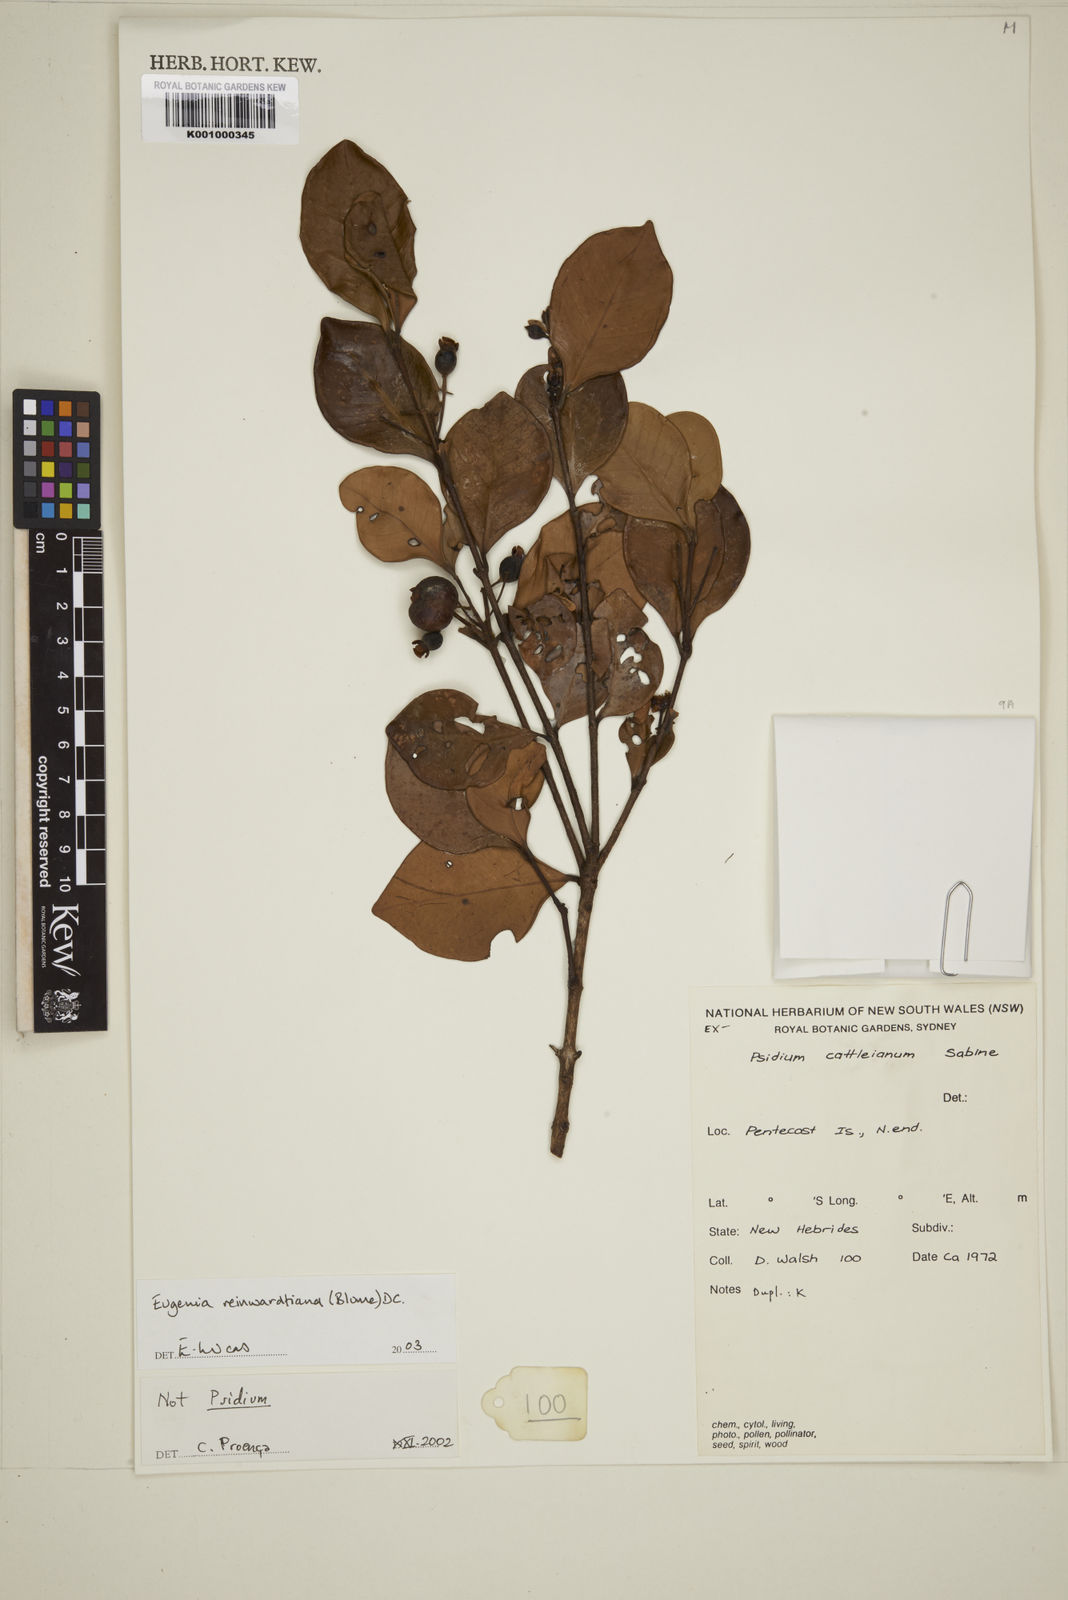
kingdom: Plantae
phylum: Tracheophyta
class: Magnoliopsida
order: Myrtales
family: Myrtaceae
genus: Eugenia
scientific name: Eugenia reinwardtiana
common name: Cedar bay-cherry
